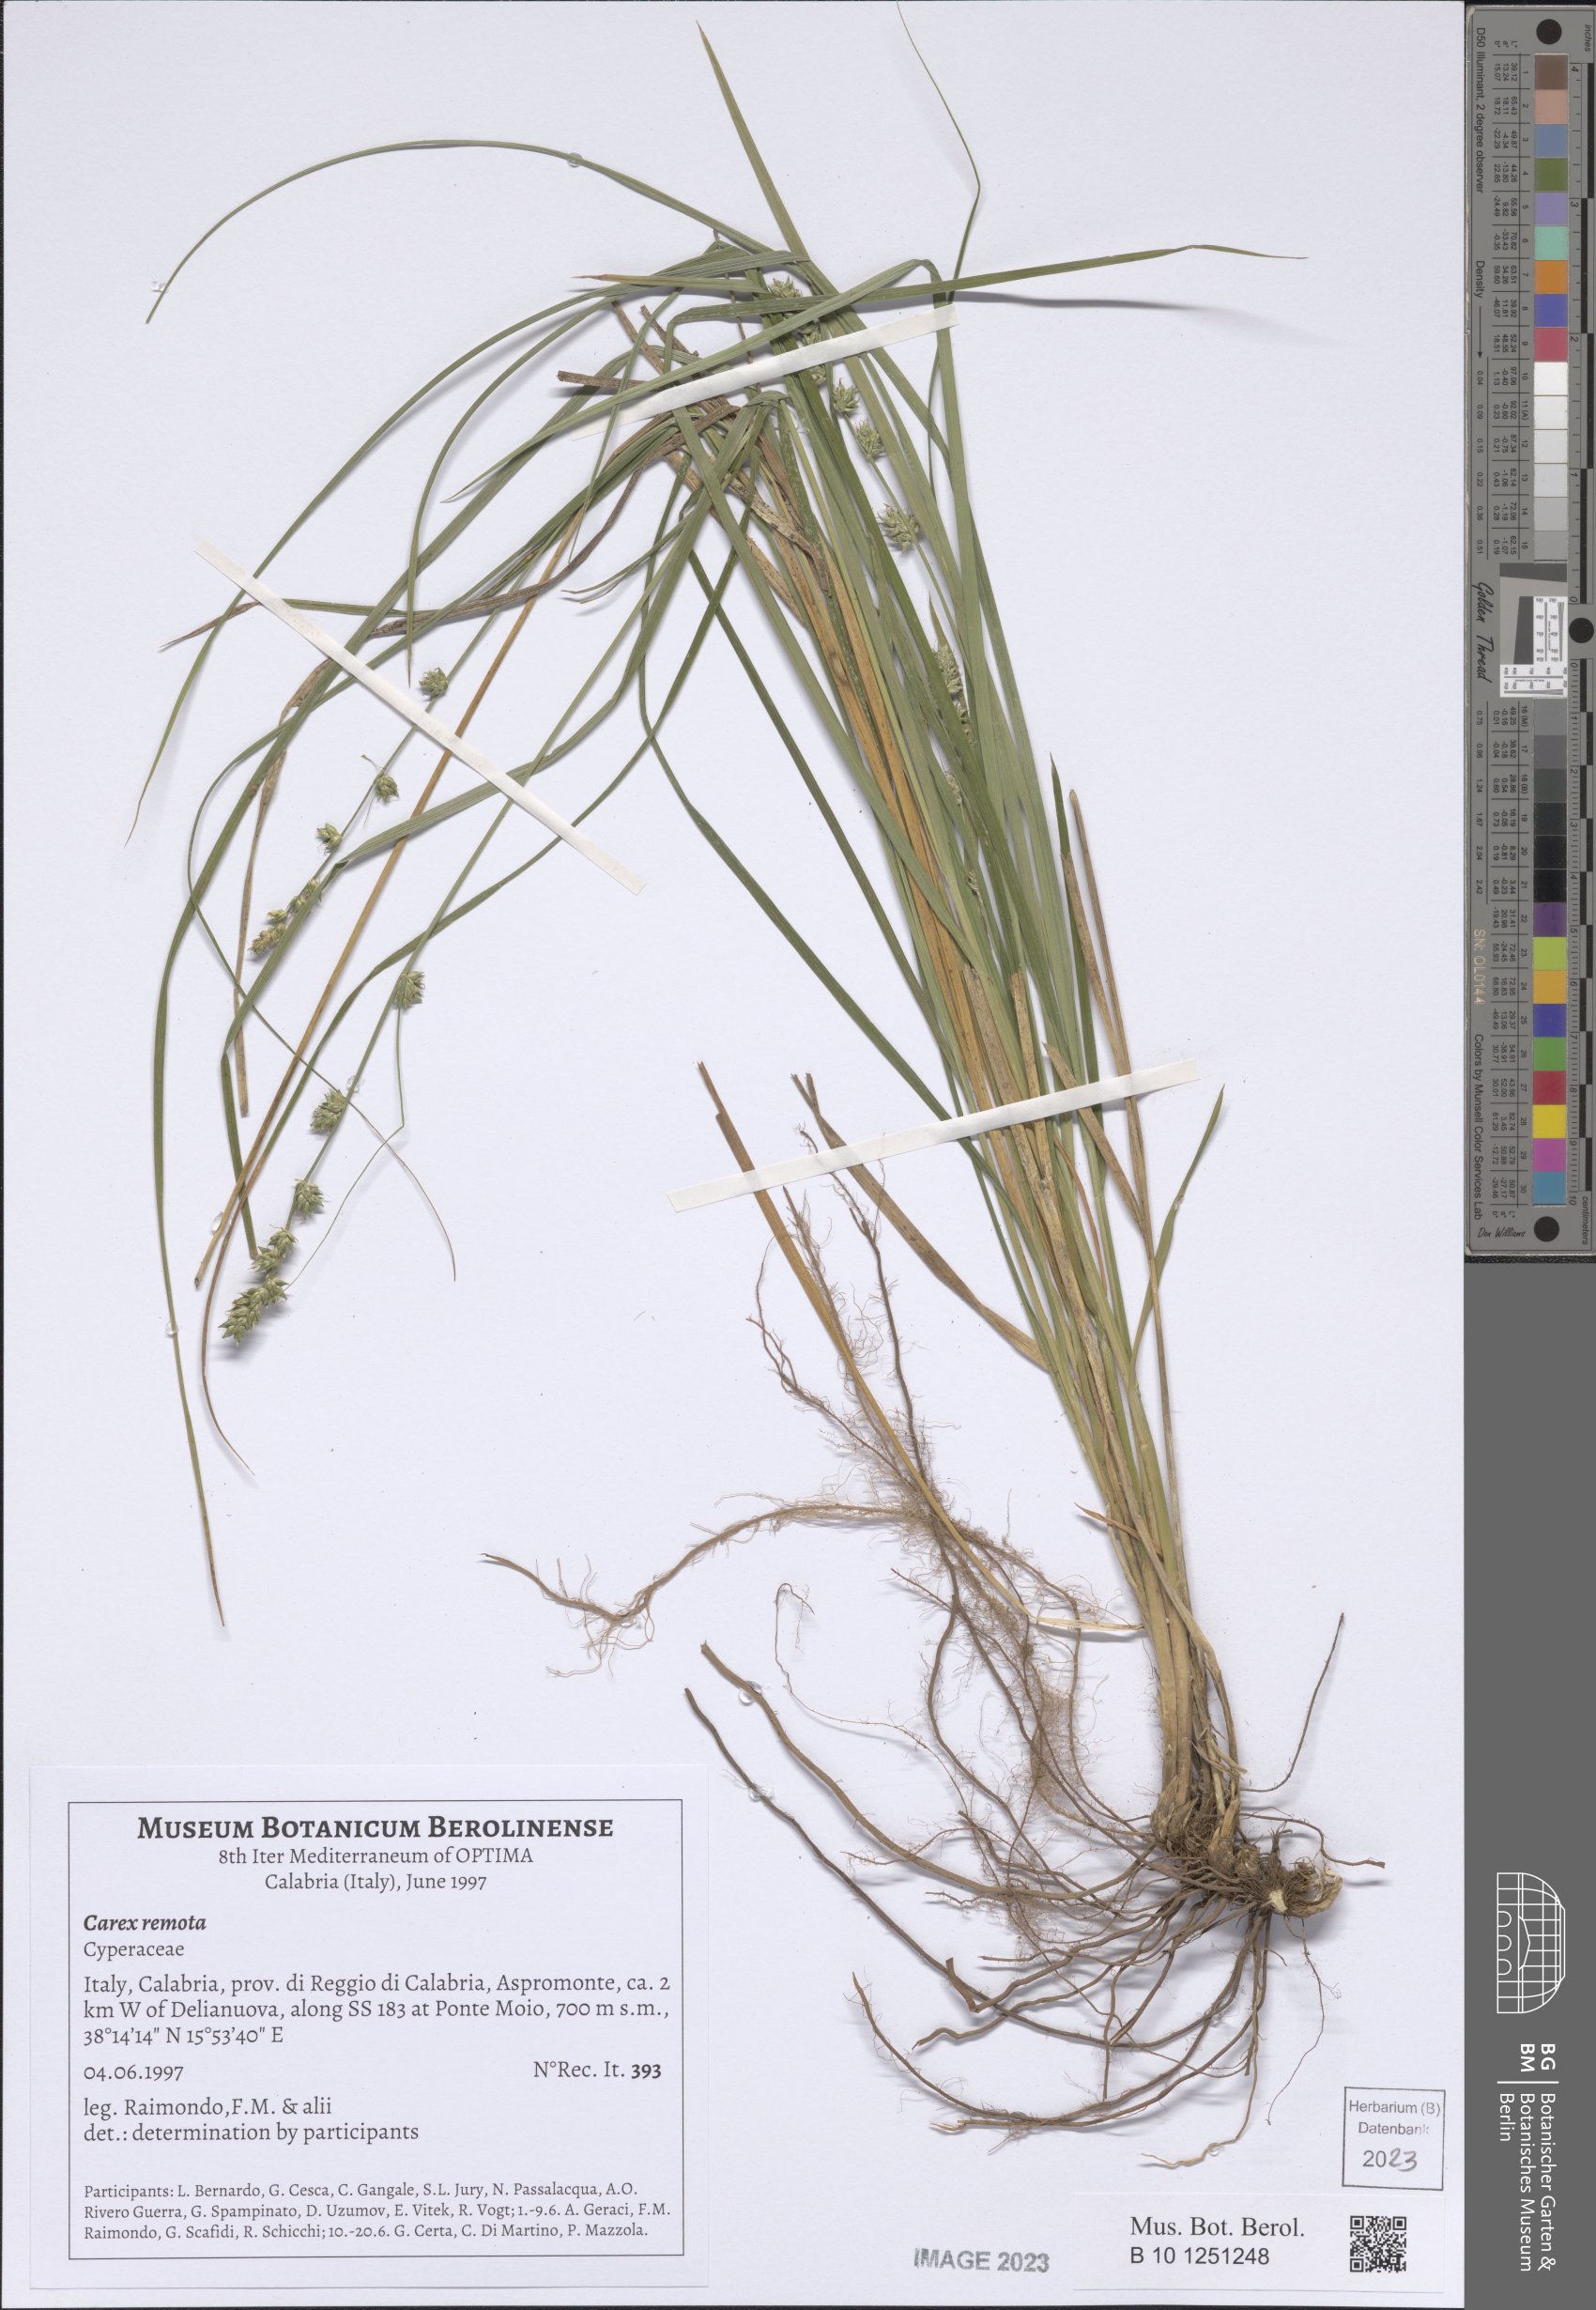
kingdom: Plantae
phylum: Tracheophyta
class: Liliopsida
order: Poales
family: Cyperaceae
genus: Carex
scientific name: Carex remota
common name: Remote sedge
